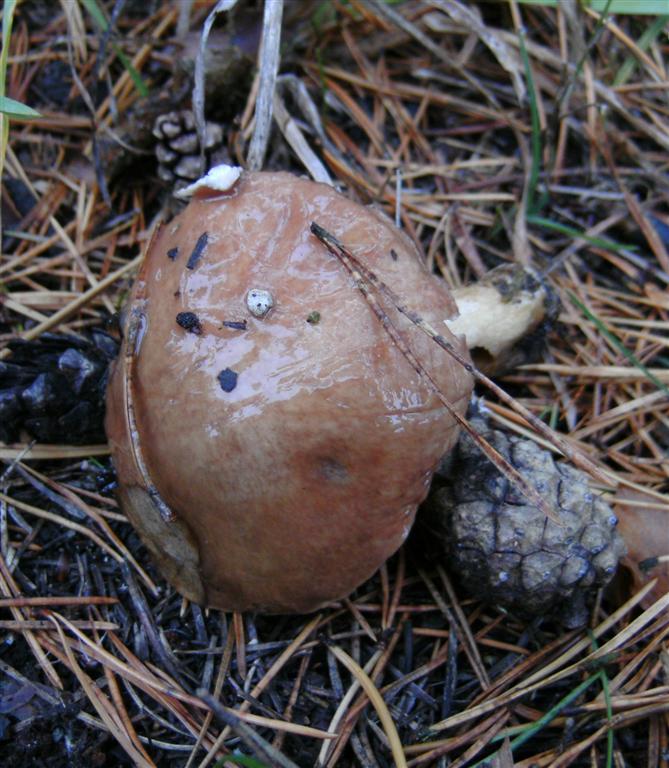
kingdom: Fungi
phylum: Basidiomycota
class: Agaricomycetes
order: Boletales
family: Suillaceae
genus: Suillus
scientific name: Suillus granulatus
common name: kornet slimrørhat
